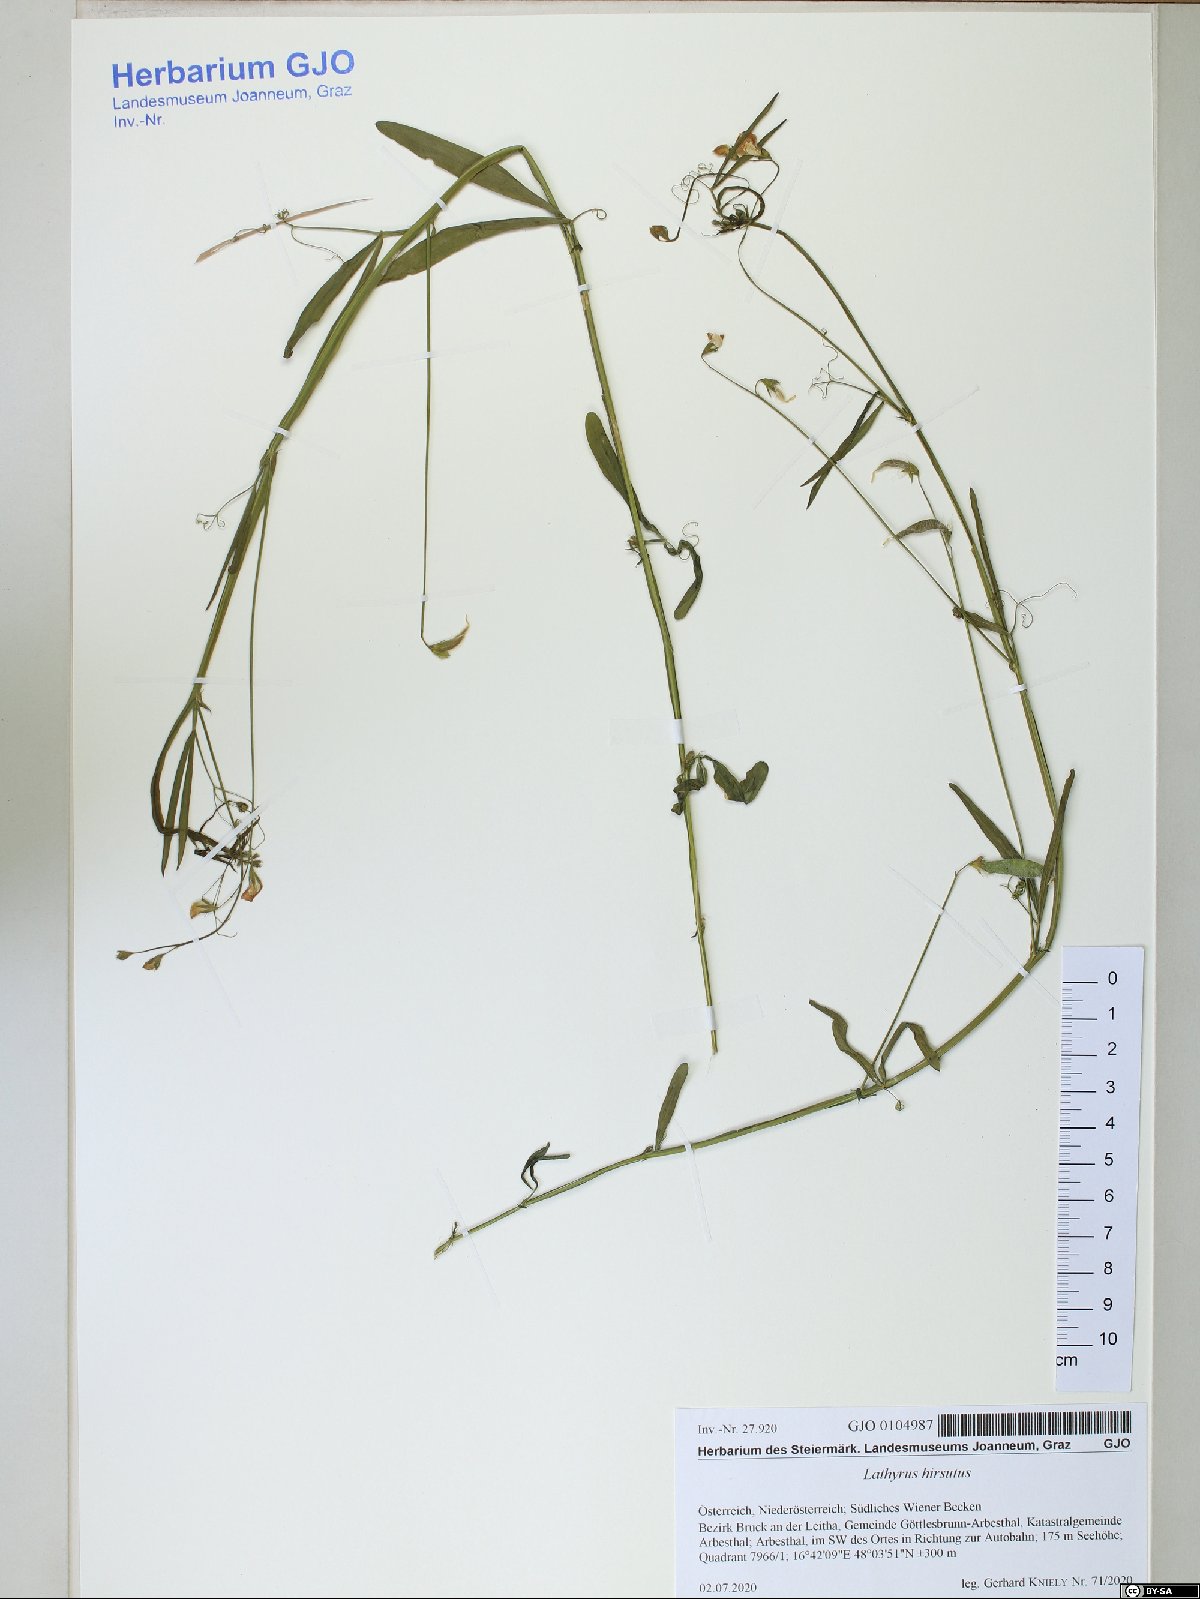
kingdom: Plantae
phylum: Tracheophyta
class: Magnoliopsida
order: Fabales
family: Fabaceae
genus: Lathyrus
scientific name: Lathyrus hirsutus
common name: Hairy vetchling
